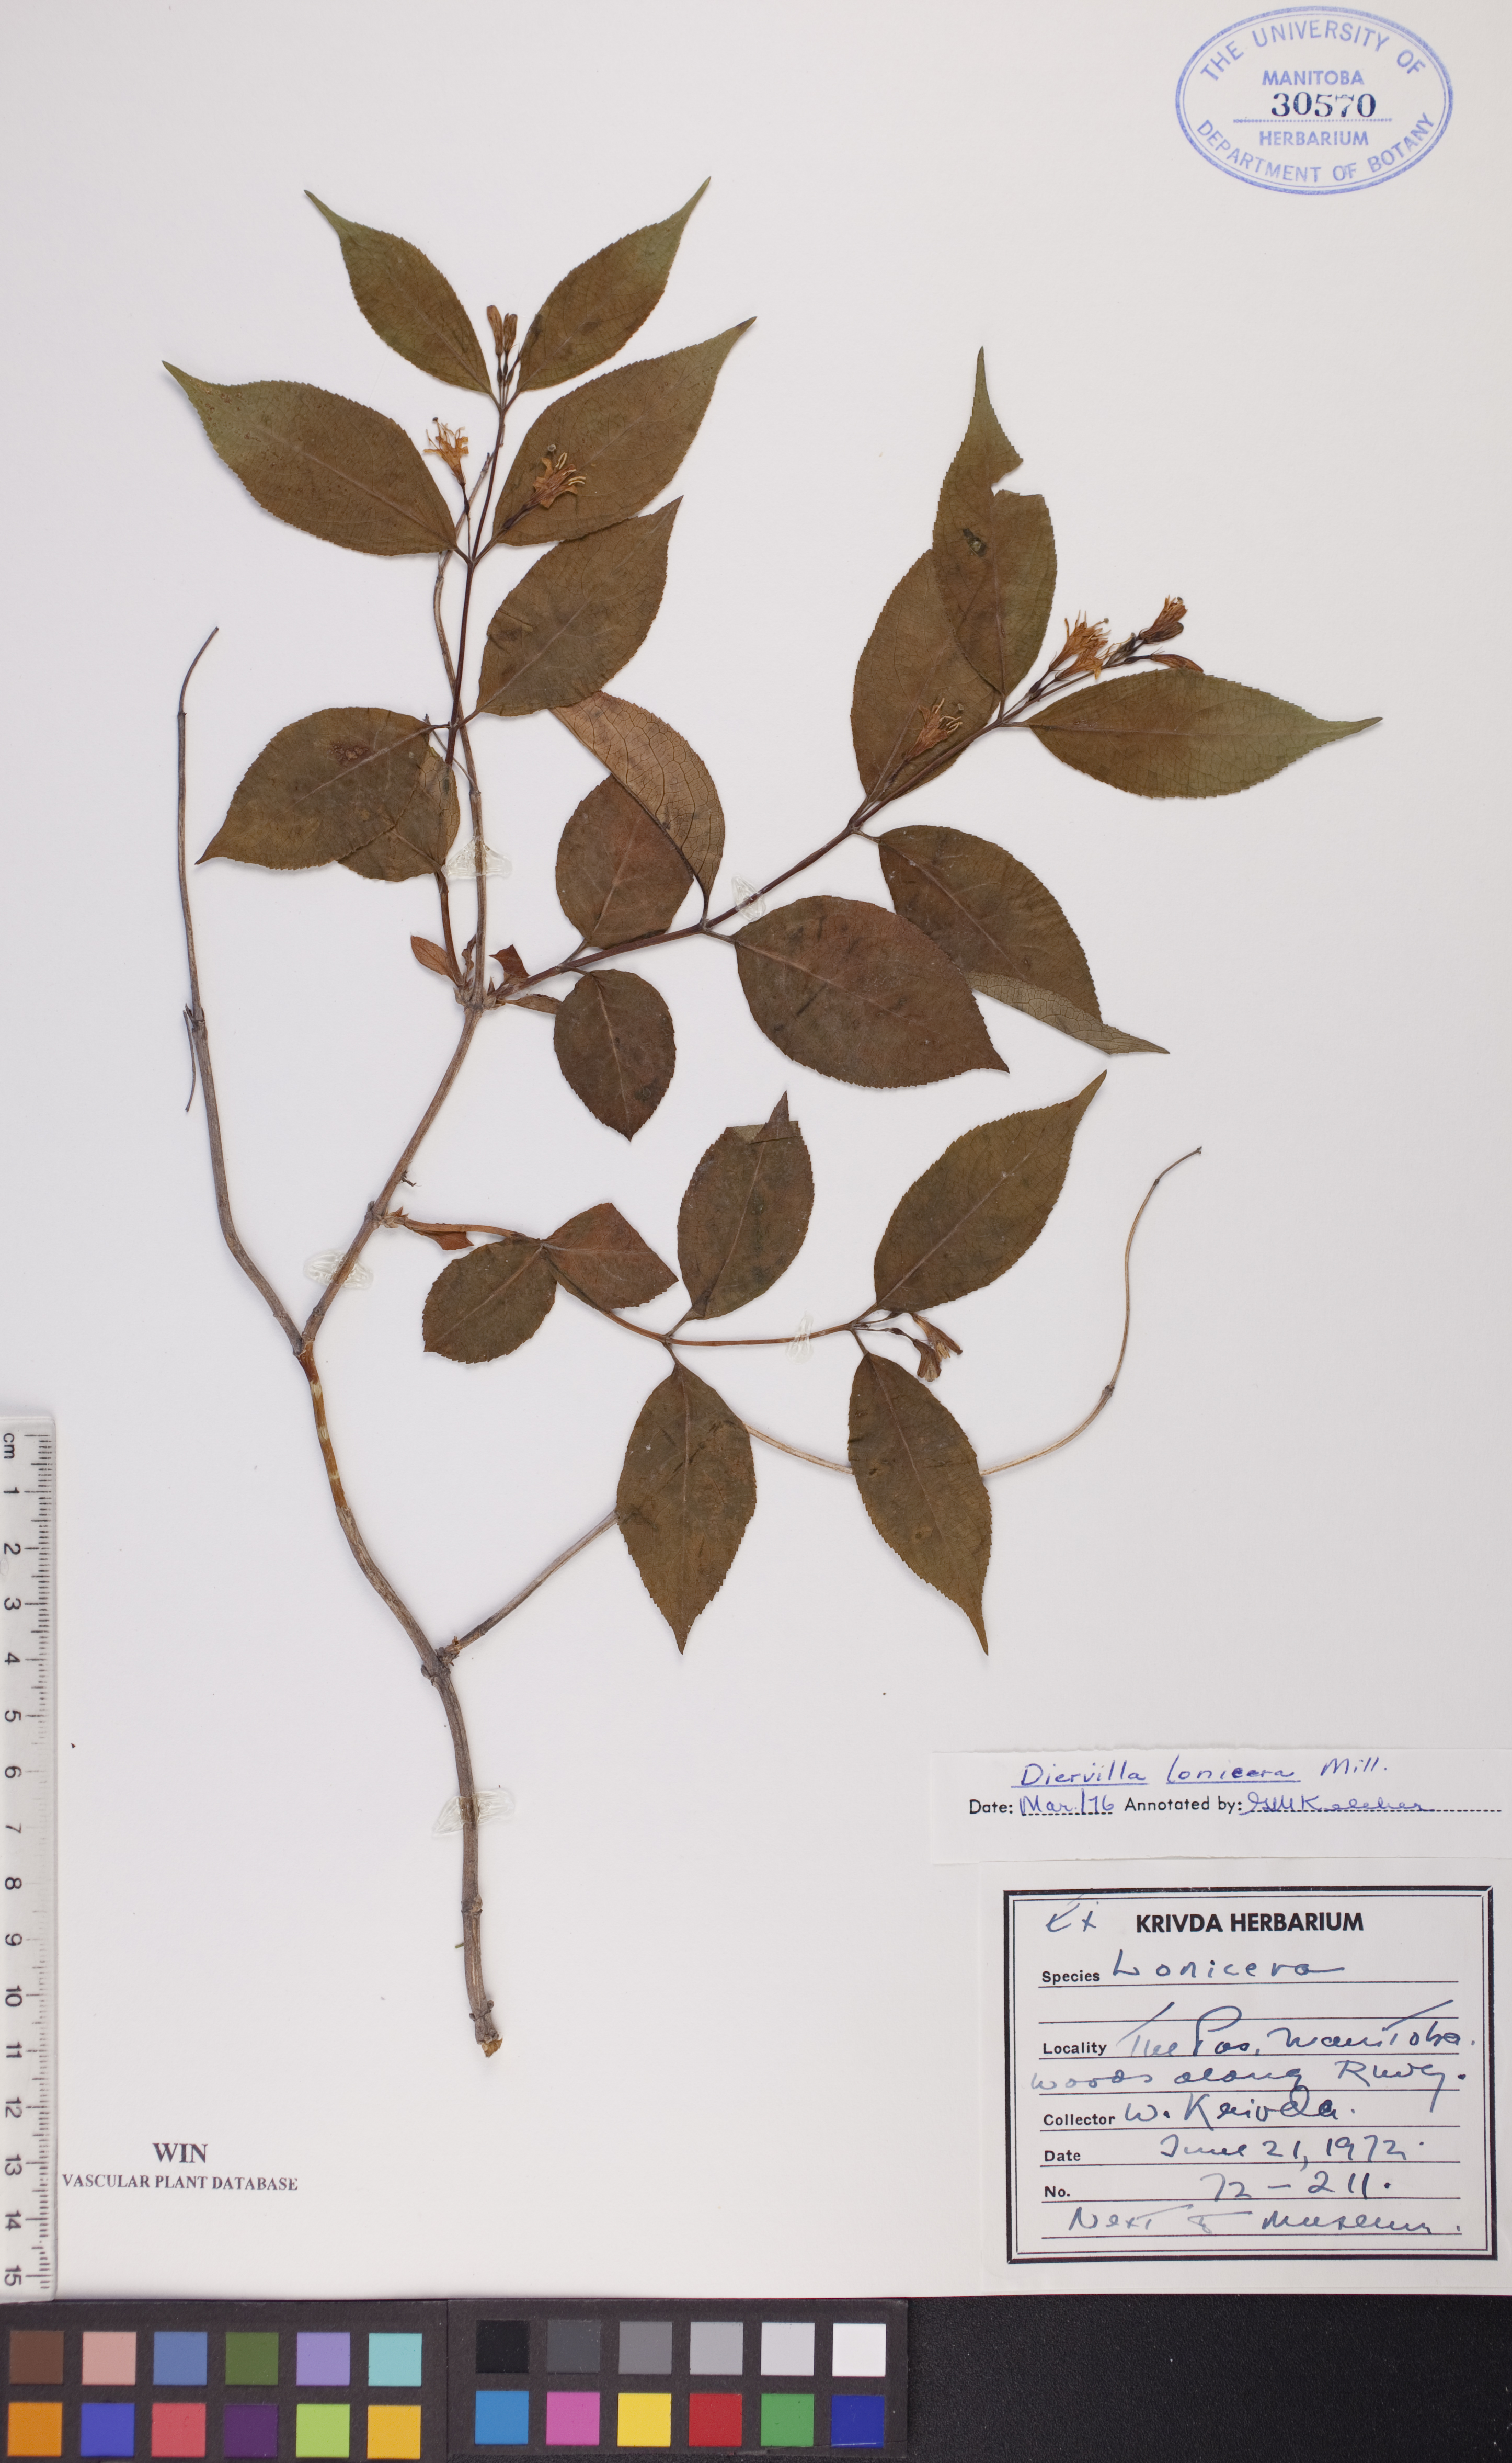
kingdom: Plantae
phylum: Tracheophyta
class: Magnoliopsida
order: Dipsacales
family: Caprifoliaceae
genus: Diervilla
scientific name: Diervilla lonicera
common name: Bush-honeysuckle
